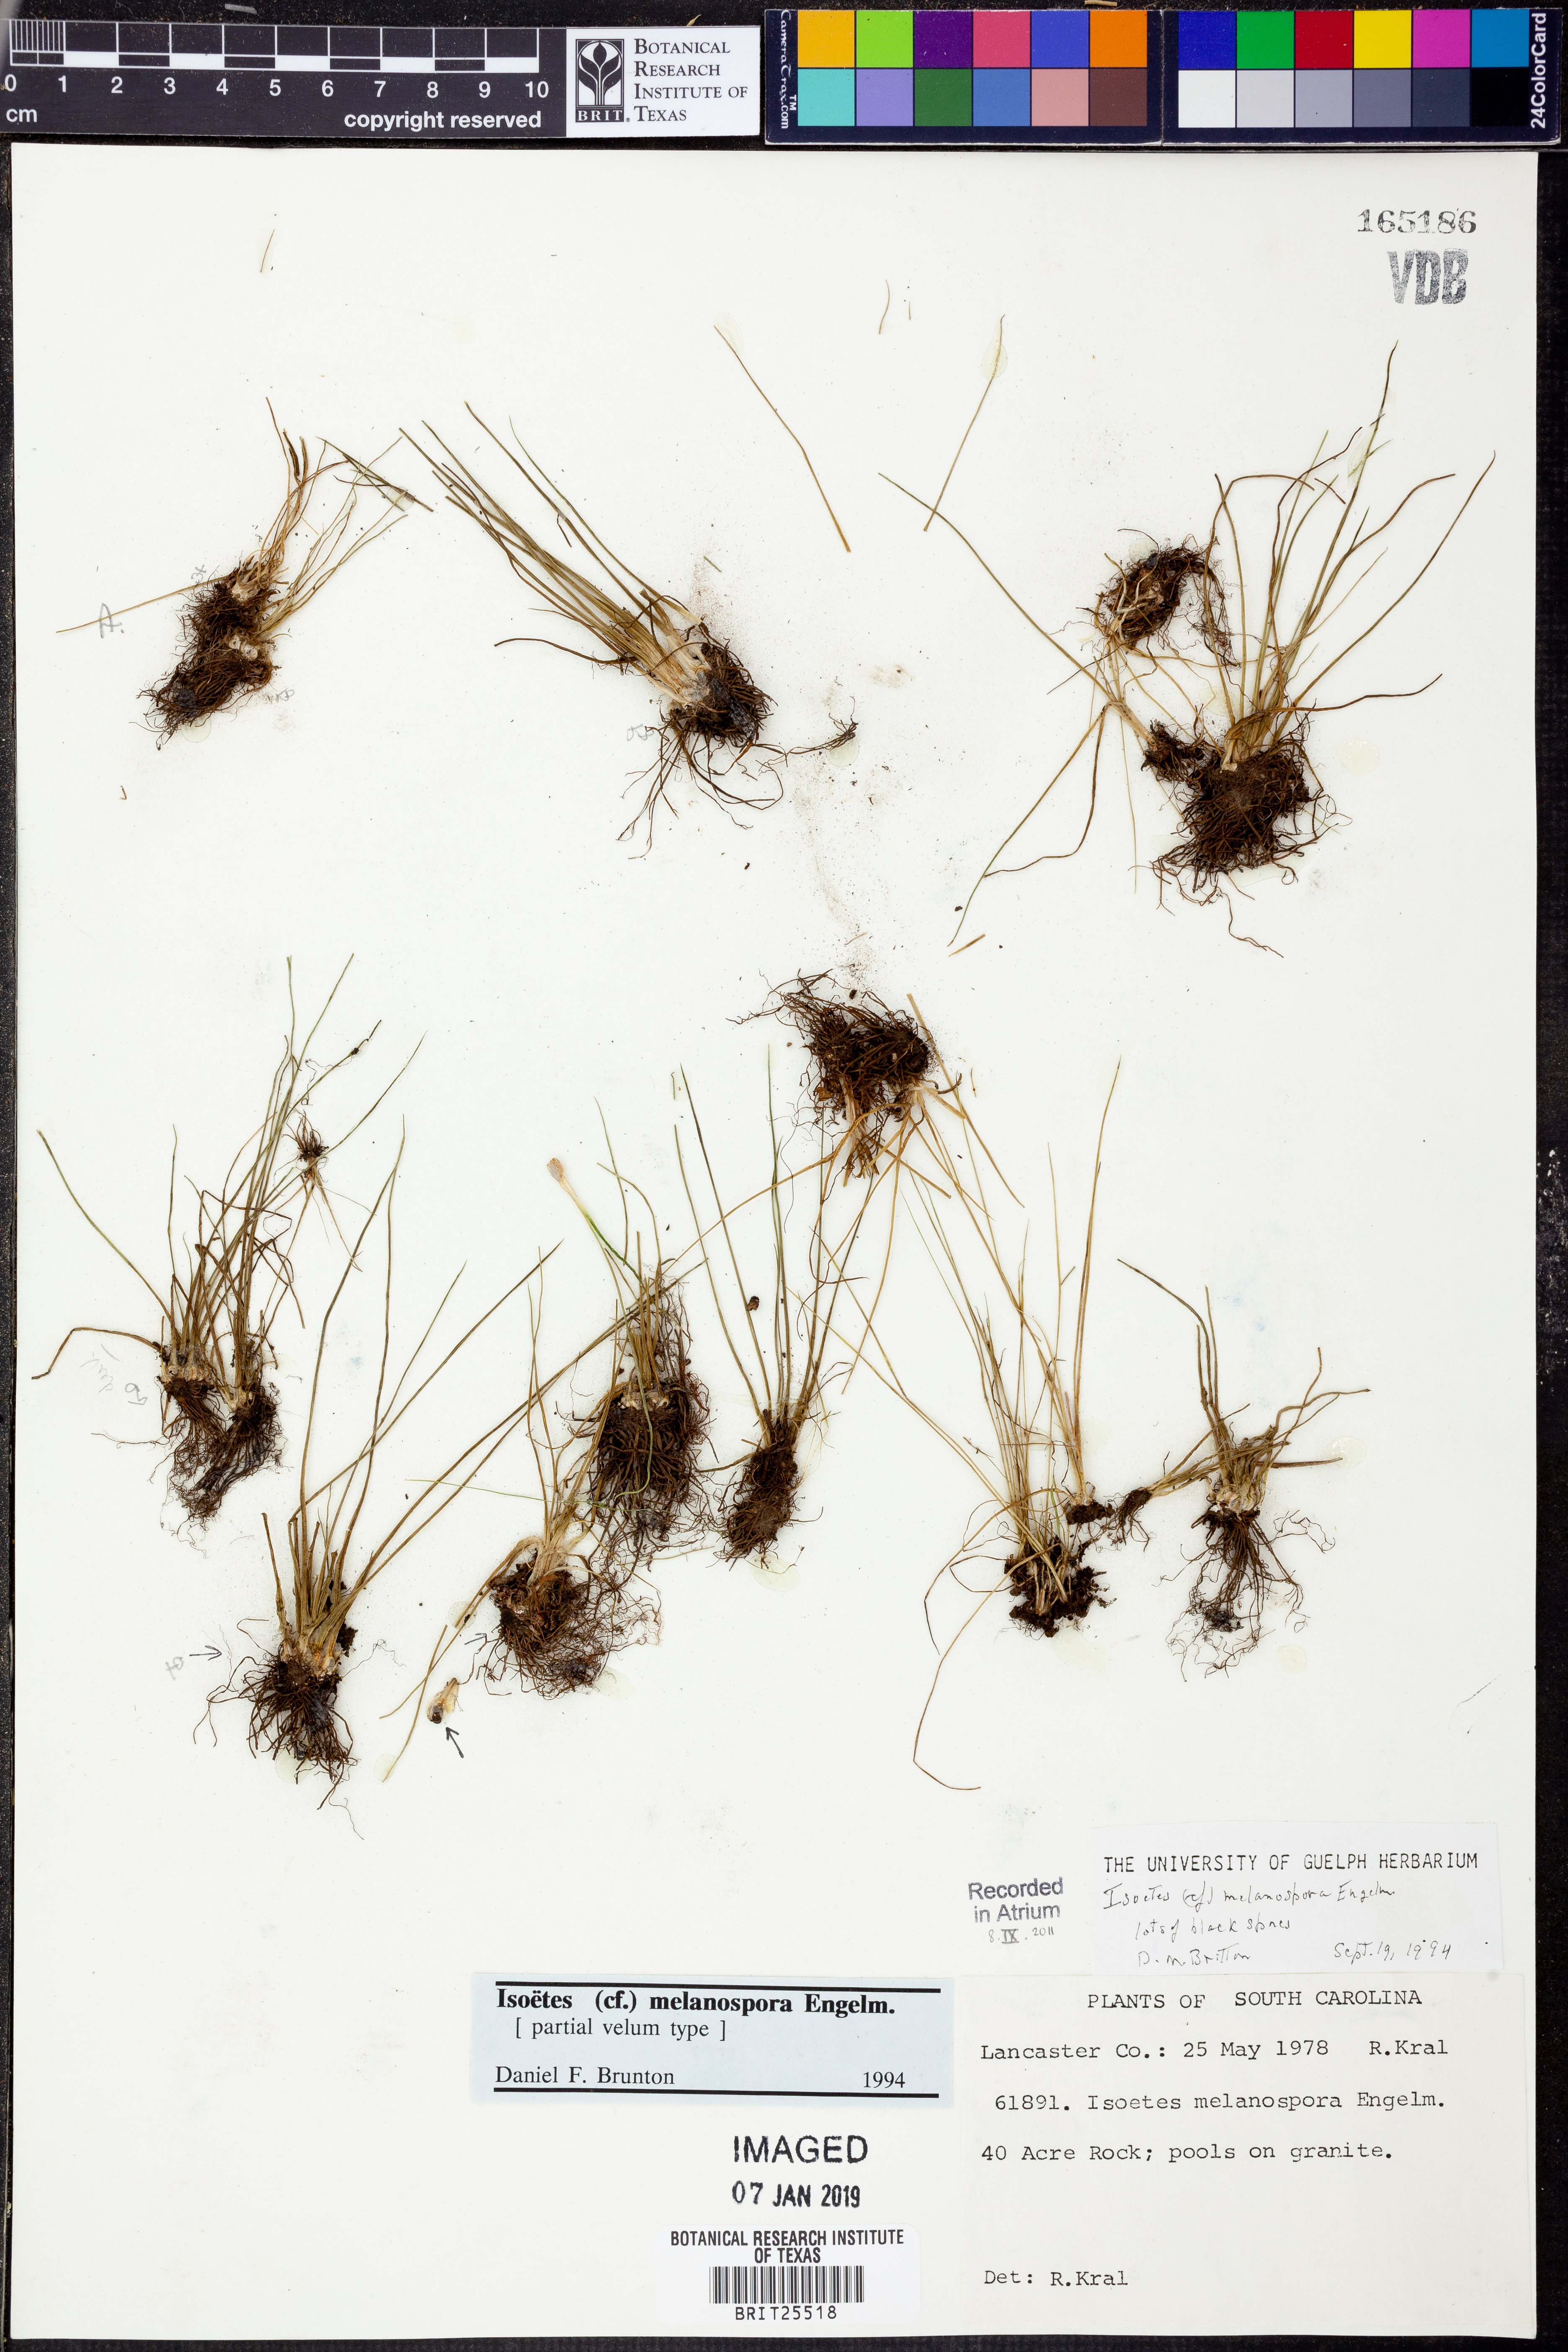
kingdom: Plantae
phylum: Tracheophyta
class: Lycopodiopsida
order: Isoetales
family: Isoetaceae
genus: Isoetes
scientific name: Isoetes melanopoda
